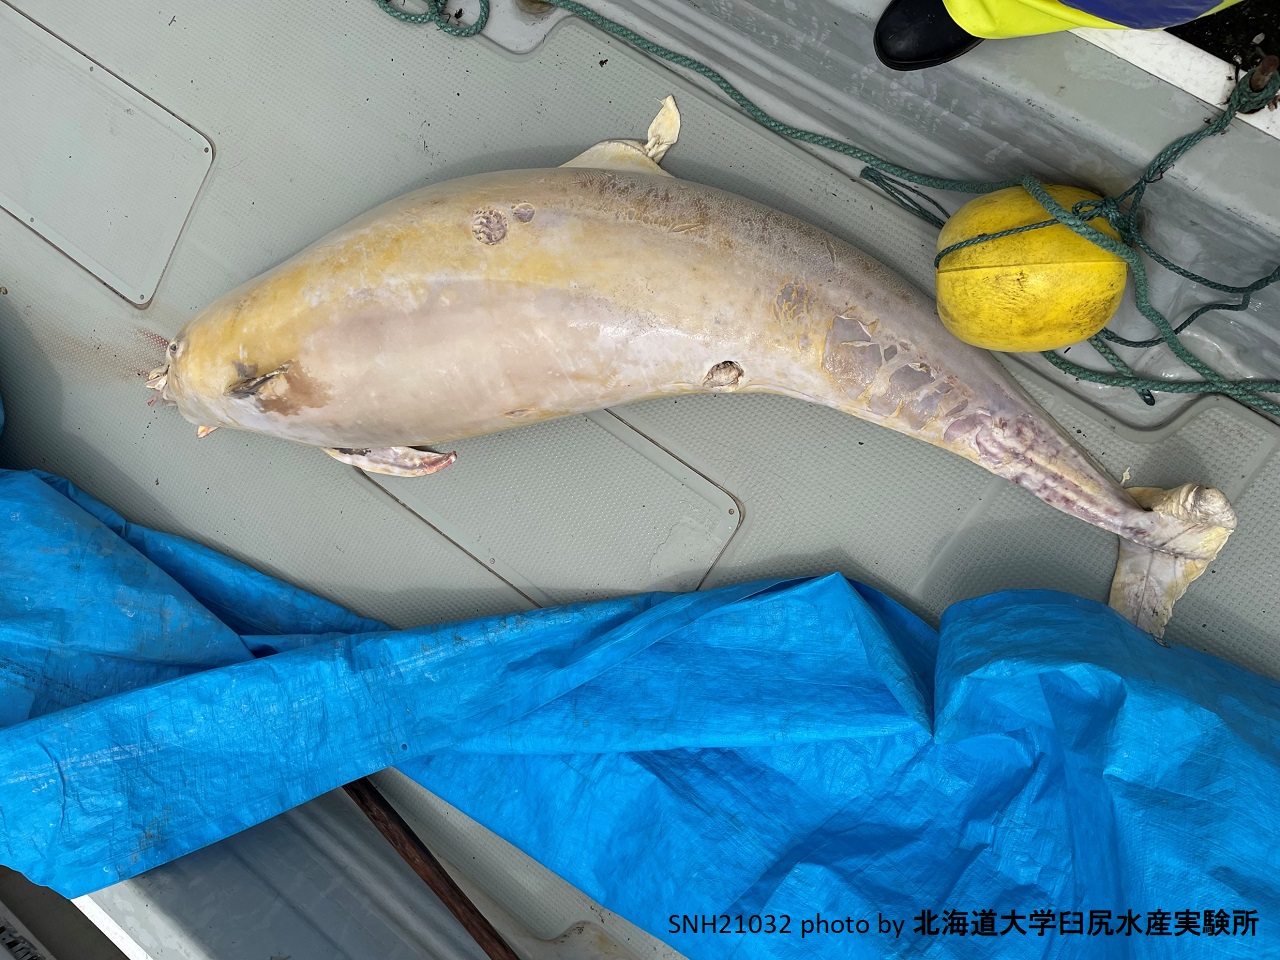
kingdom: Animalia
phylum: Chordata
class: Mammalia
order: Cetacea
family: Delphinidae
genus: Stenella
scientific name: Stenella coeruleoalba
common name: Striped dolphin
